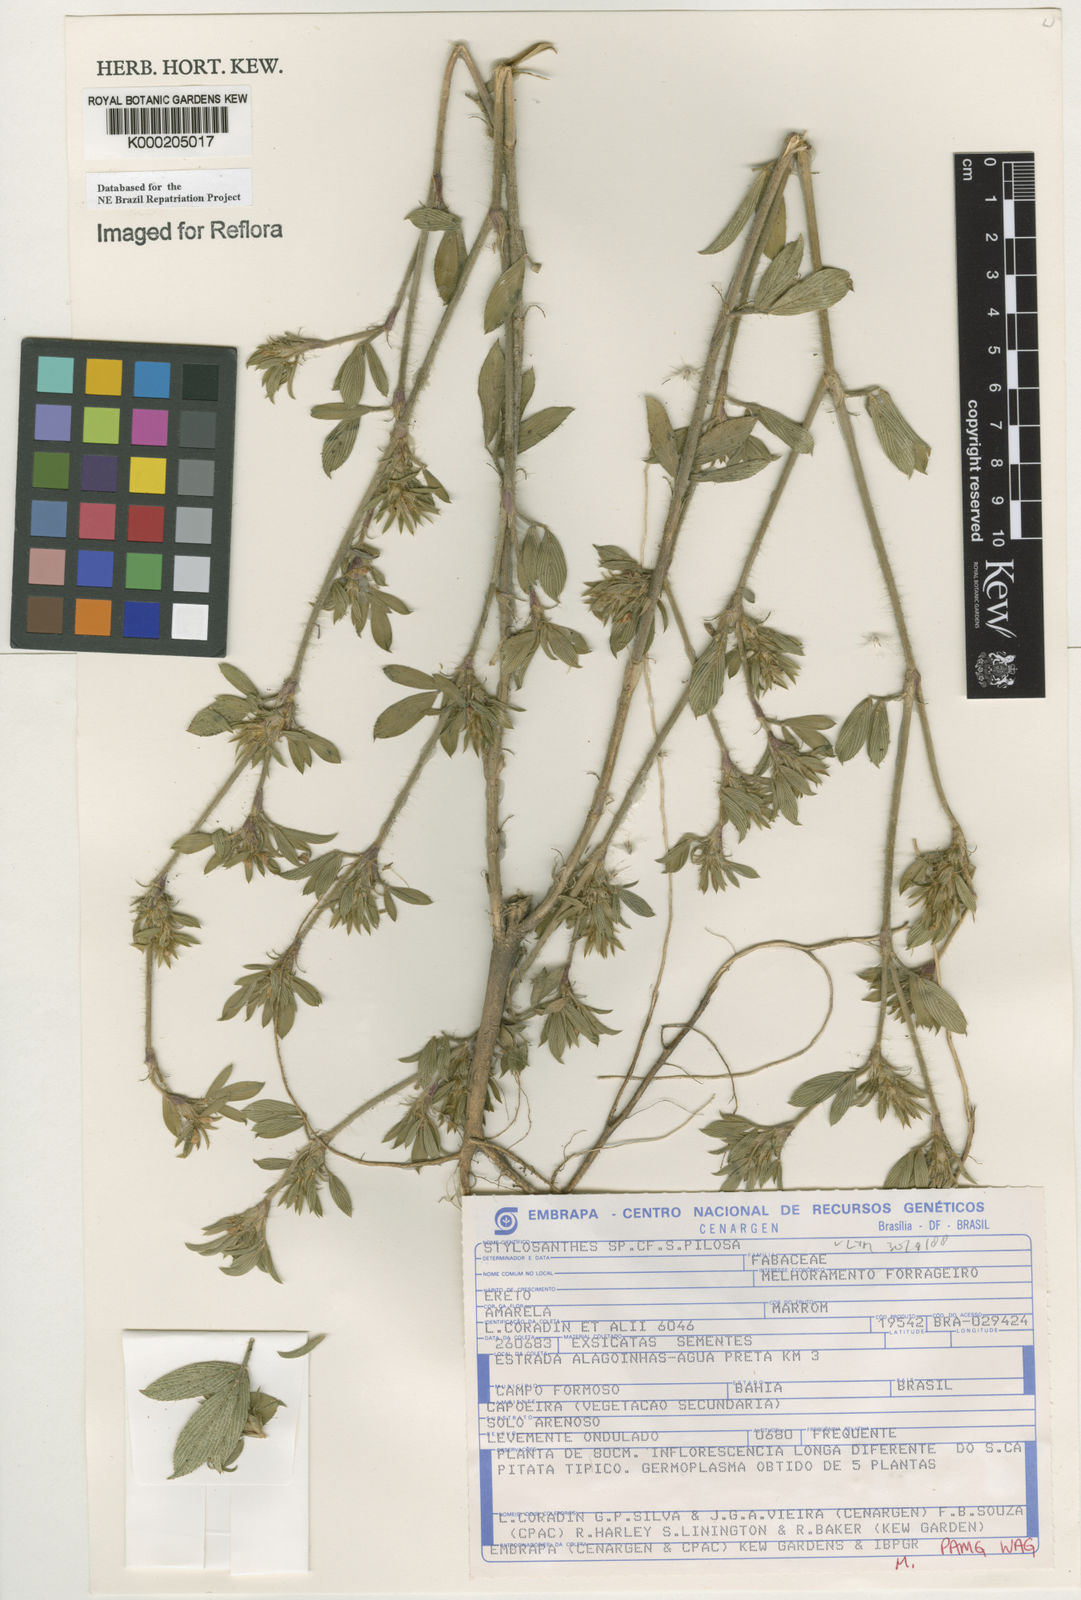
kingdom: Plantae
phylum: Tracheophyta
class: Magnoliopsida
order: Fabales
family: Fabaceae
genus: Stylosanthes
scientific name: Stylosanthes viscosa
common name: Viscid pencil-flower
